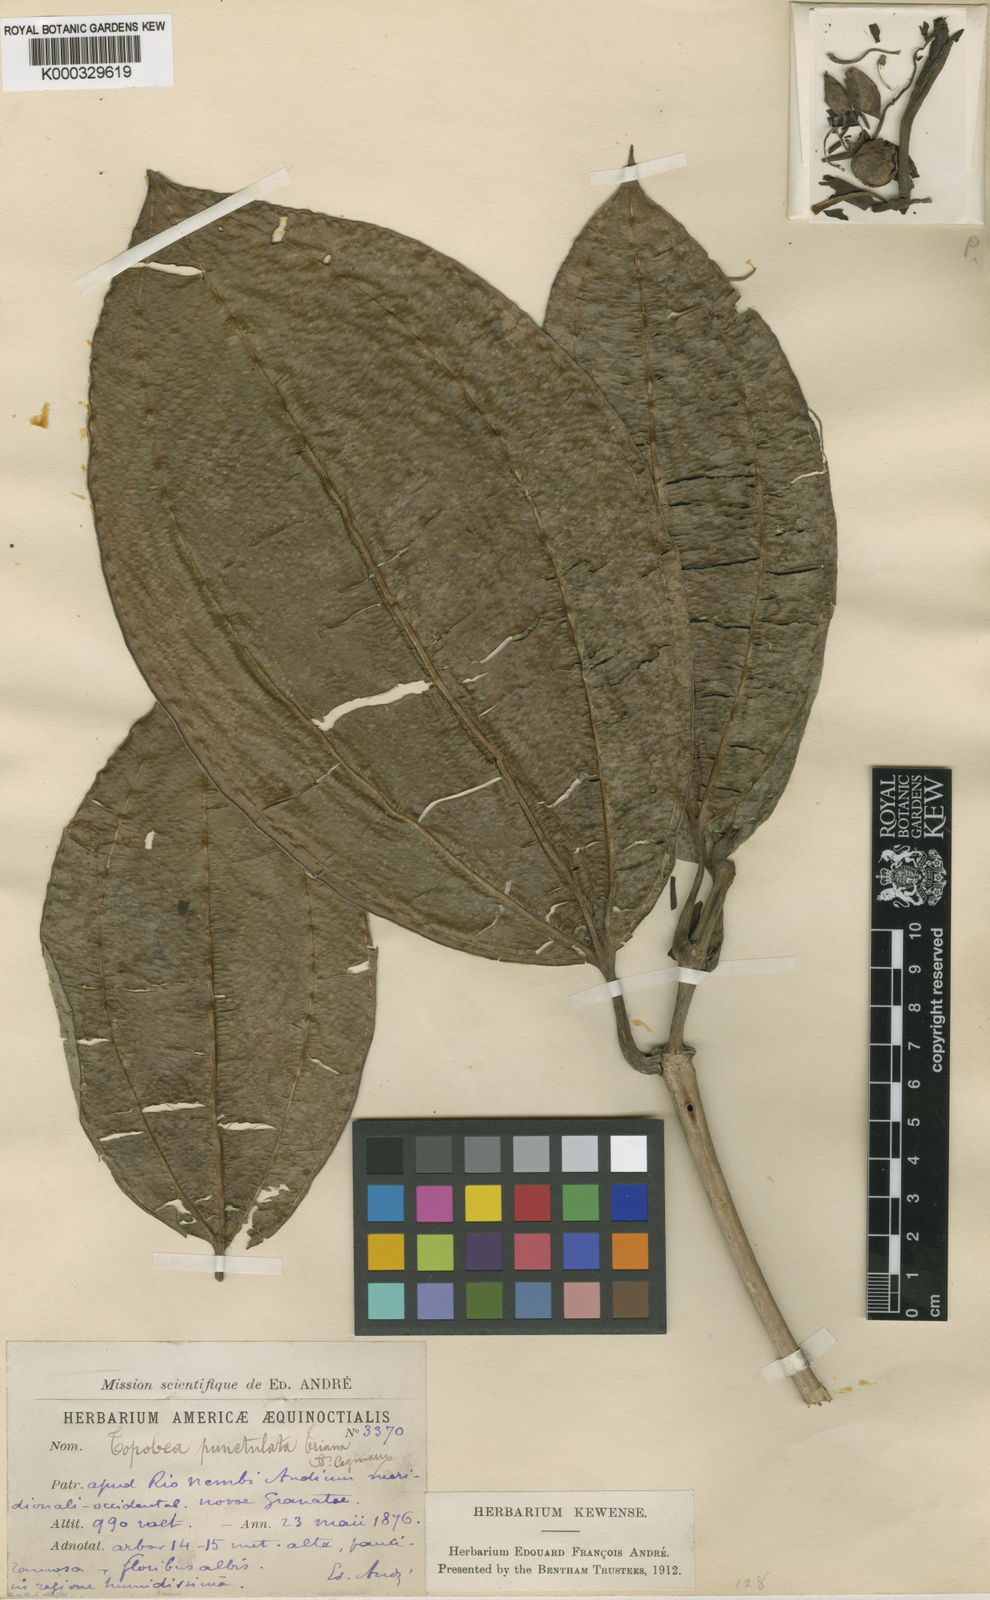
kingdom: Plantae
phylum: Tracheophyta
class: Magnoliopsida
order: Myrtales
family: Melastomataceae
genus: Blakea
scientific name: Blakea punctulata
